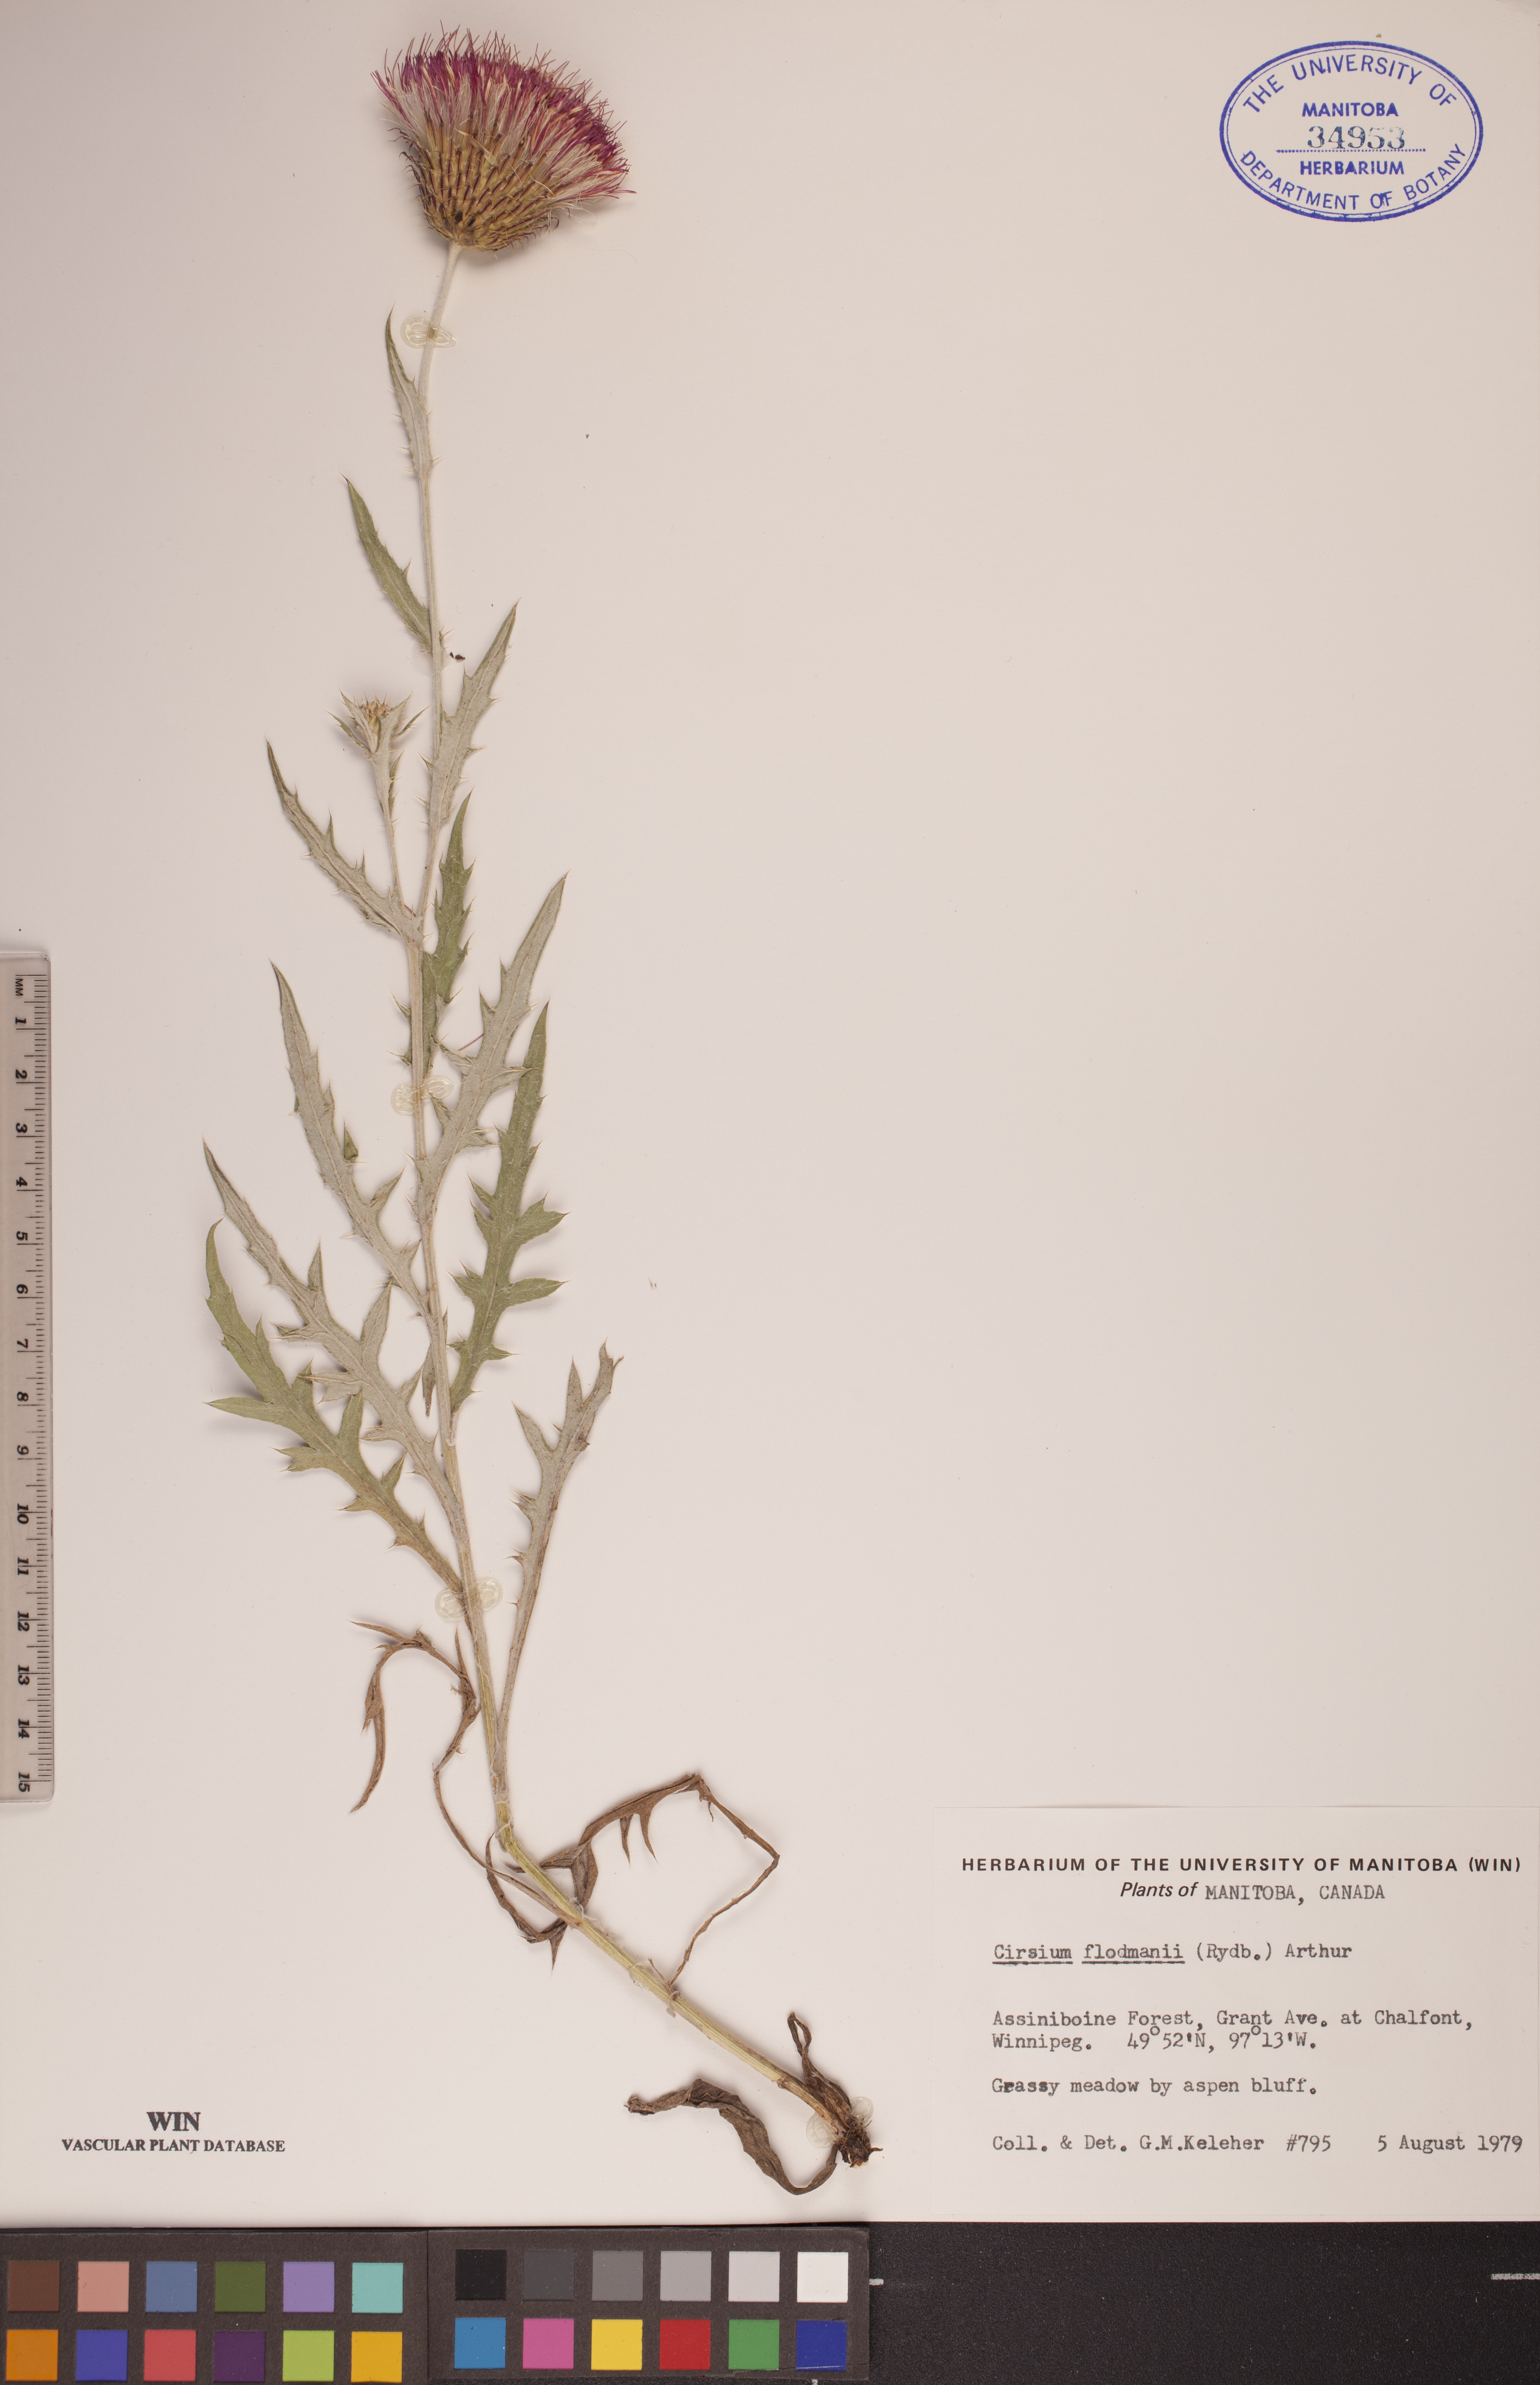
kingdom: Plantae
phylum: Tracheophyta
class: Magnoliopsida
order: Asterales
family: Asteraceae
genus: Cirsium
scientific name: Cirsium flodmanii
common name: Flodman's thistle
